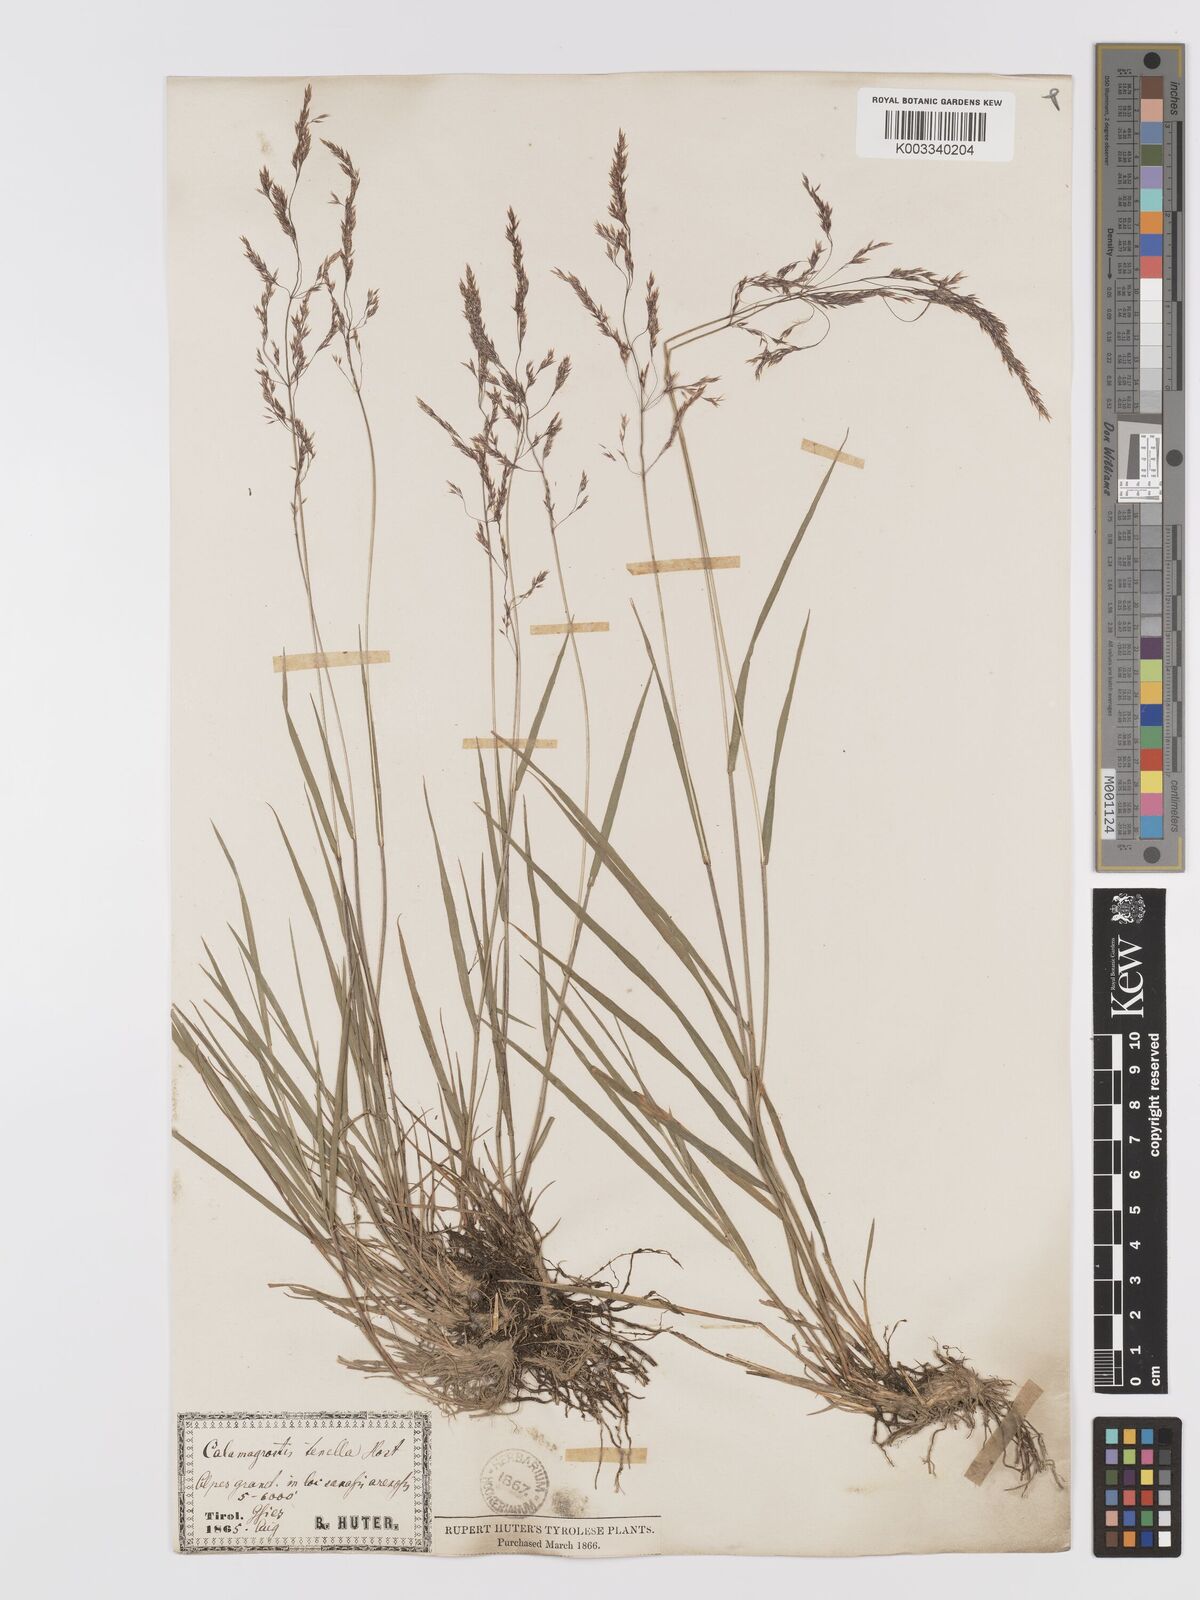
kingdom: Plantae
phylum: Tracheophyta
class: Liliopsida
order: Poales
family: Poaceae
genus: Agrostis
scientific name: Agrostis schraderiana
